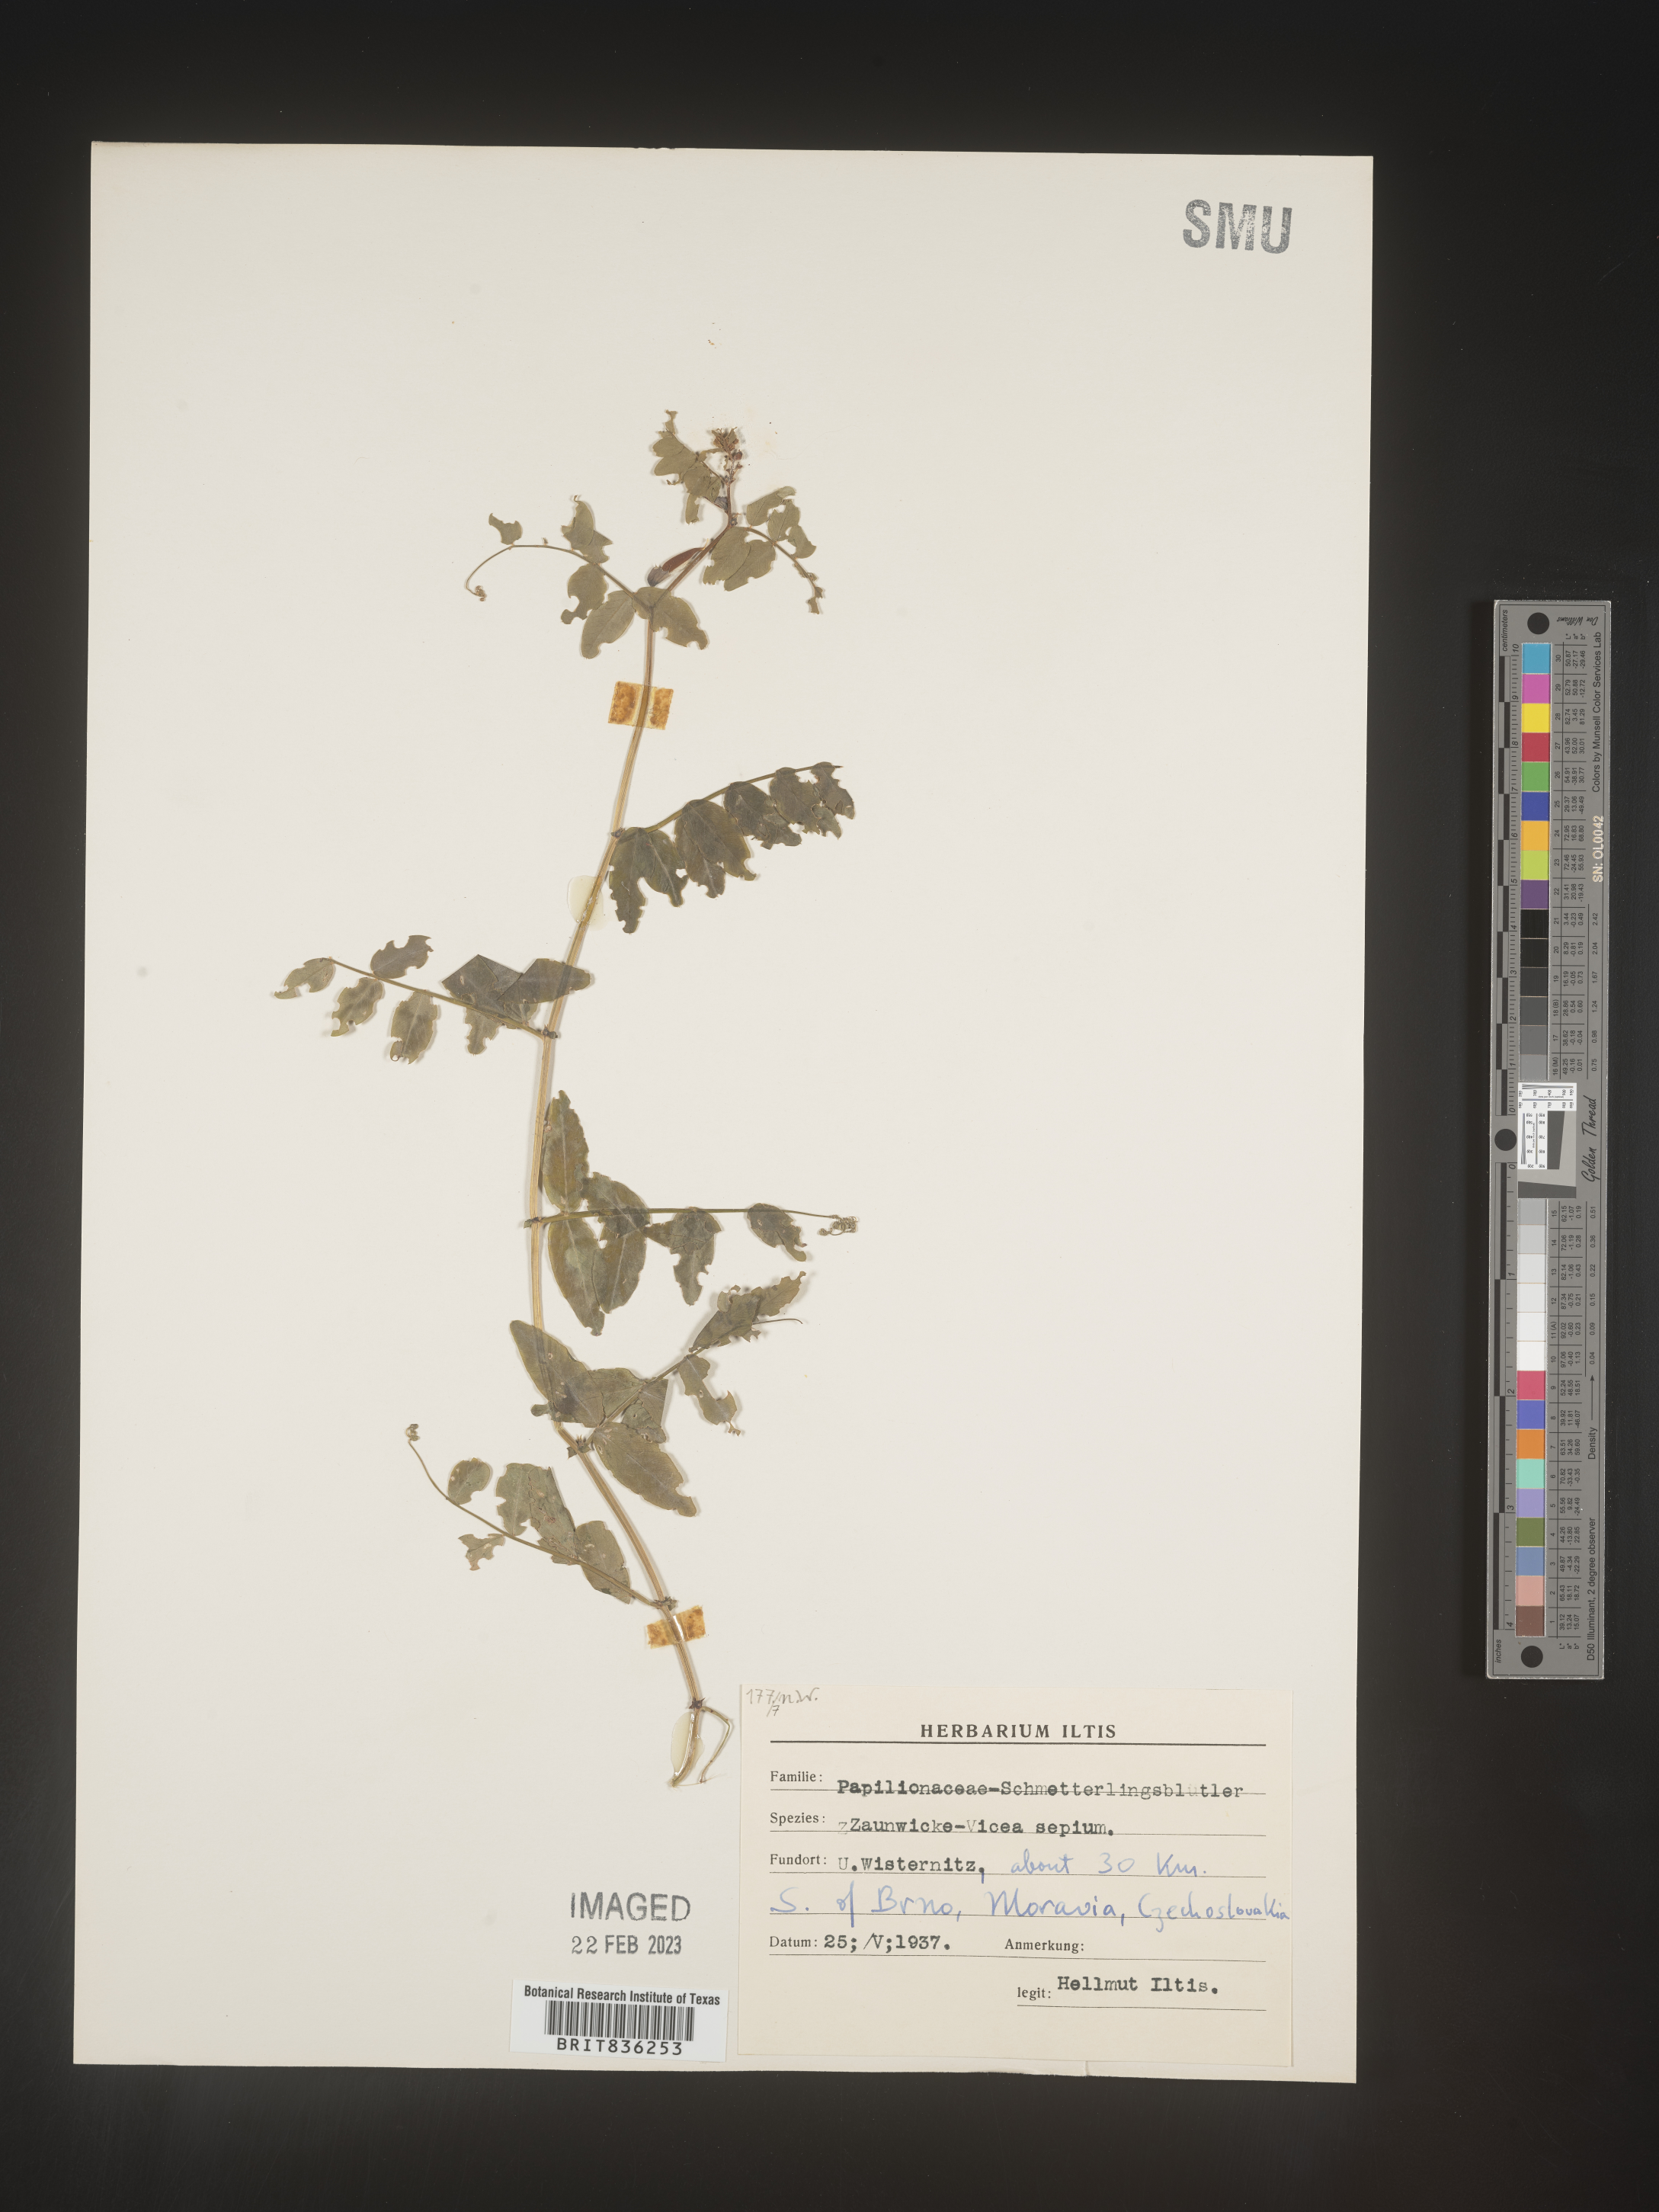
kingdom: Plantae
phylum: Tracheophyta
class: Magnoliopsida
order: Fabales
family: Fabaceae
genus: Vicia
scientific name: Vicia
